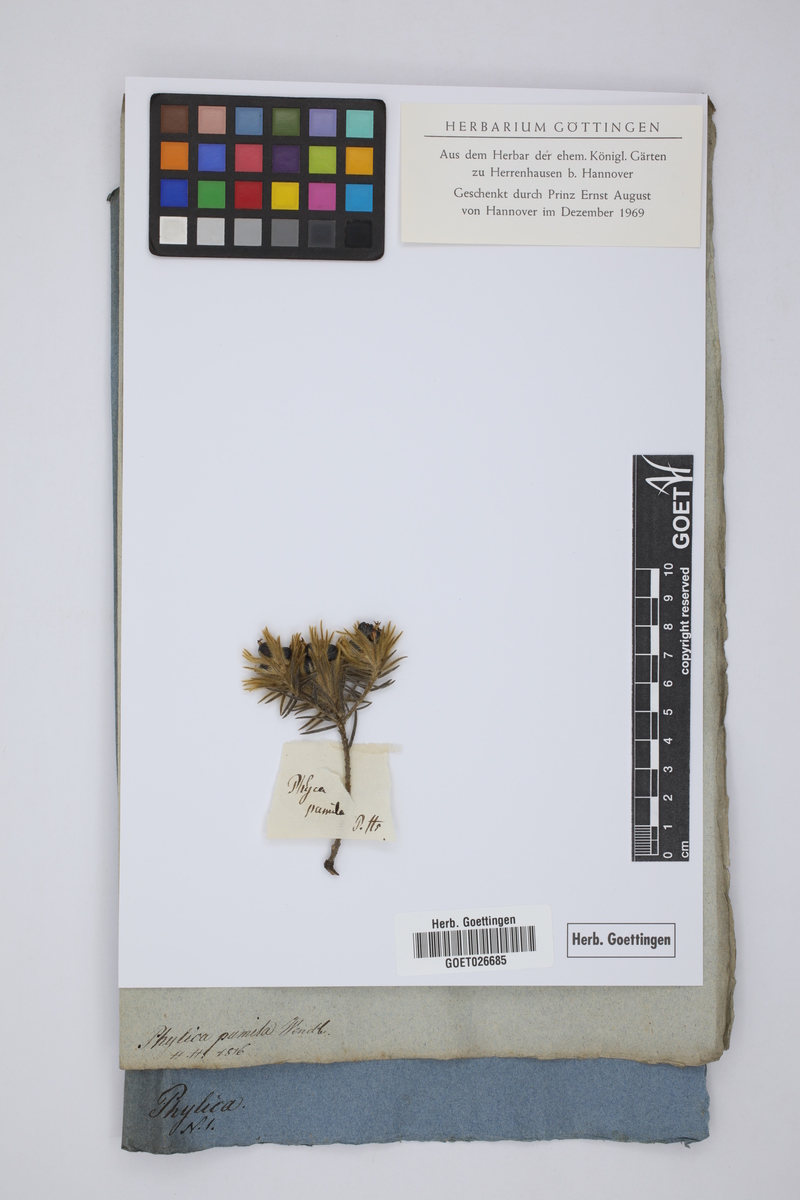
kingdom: Plantae
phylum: Tracheophyta
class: Magnoliopsida
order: Rosales
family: Rhamnaceae
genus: Phylica
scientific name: Phylica plumosa
